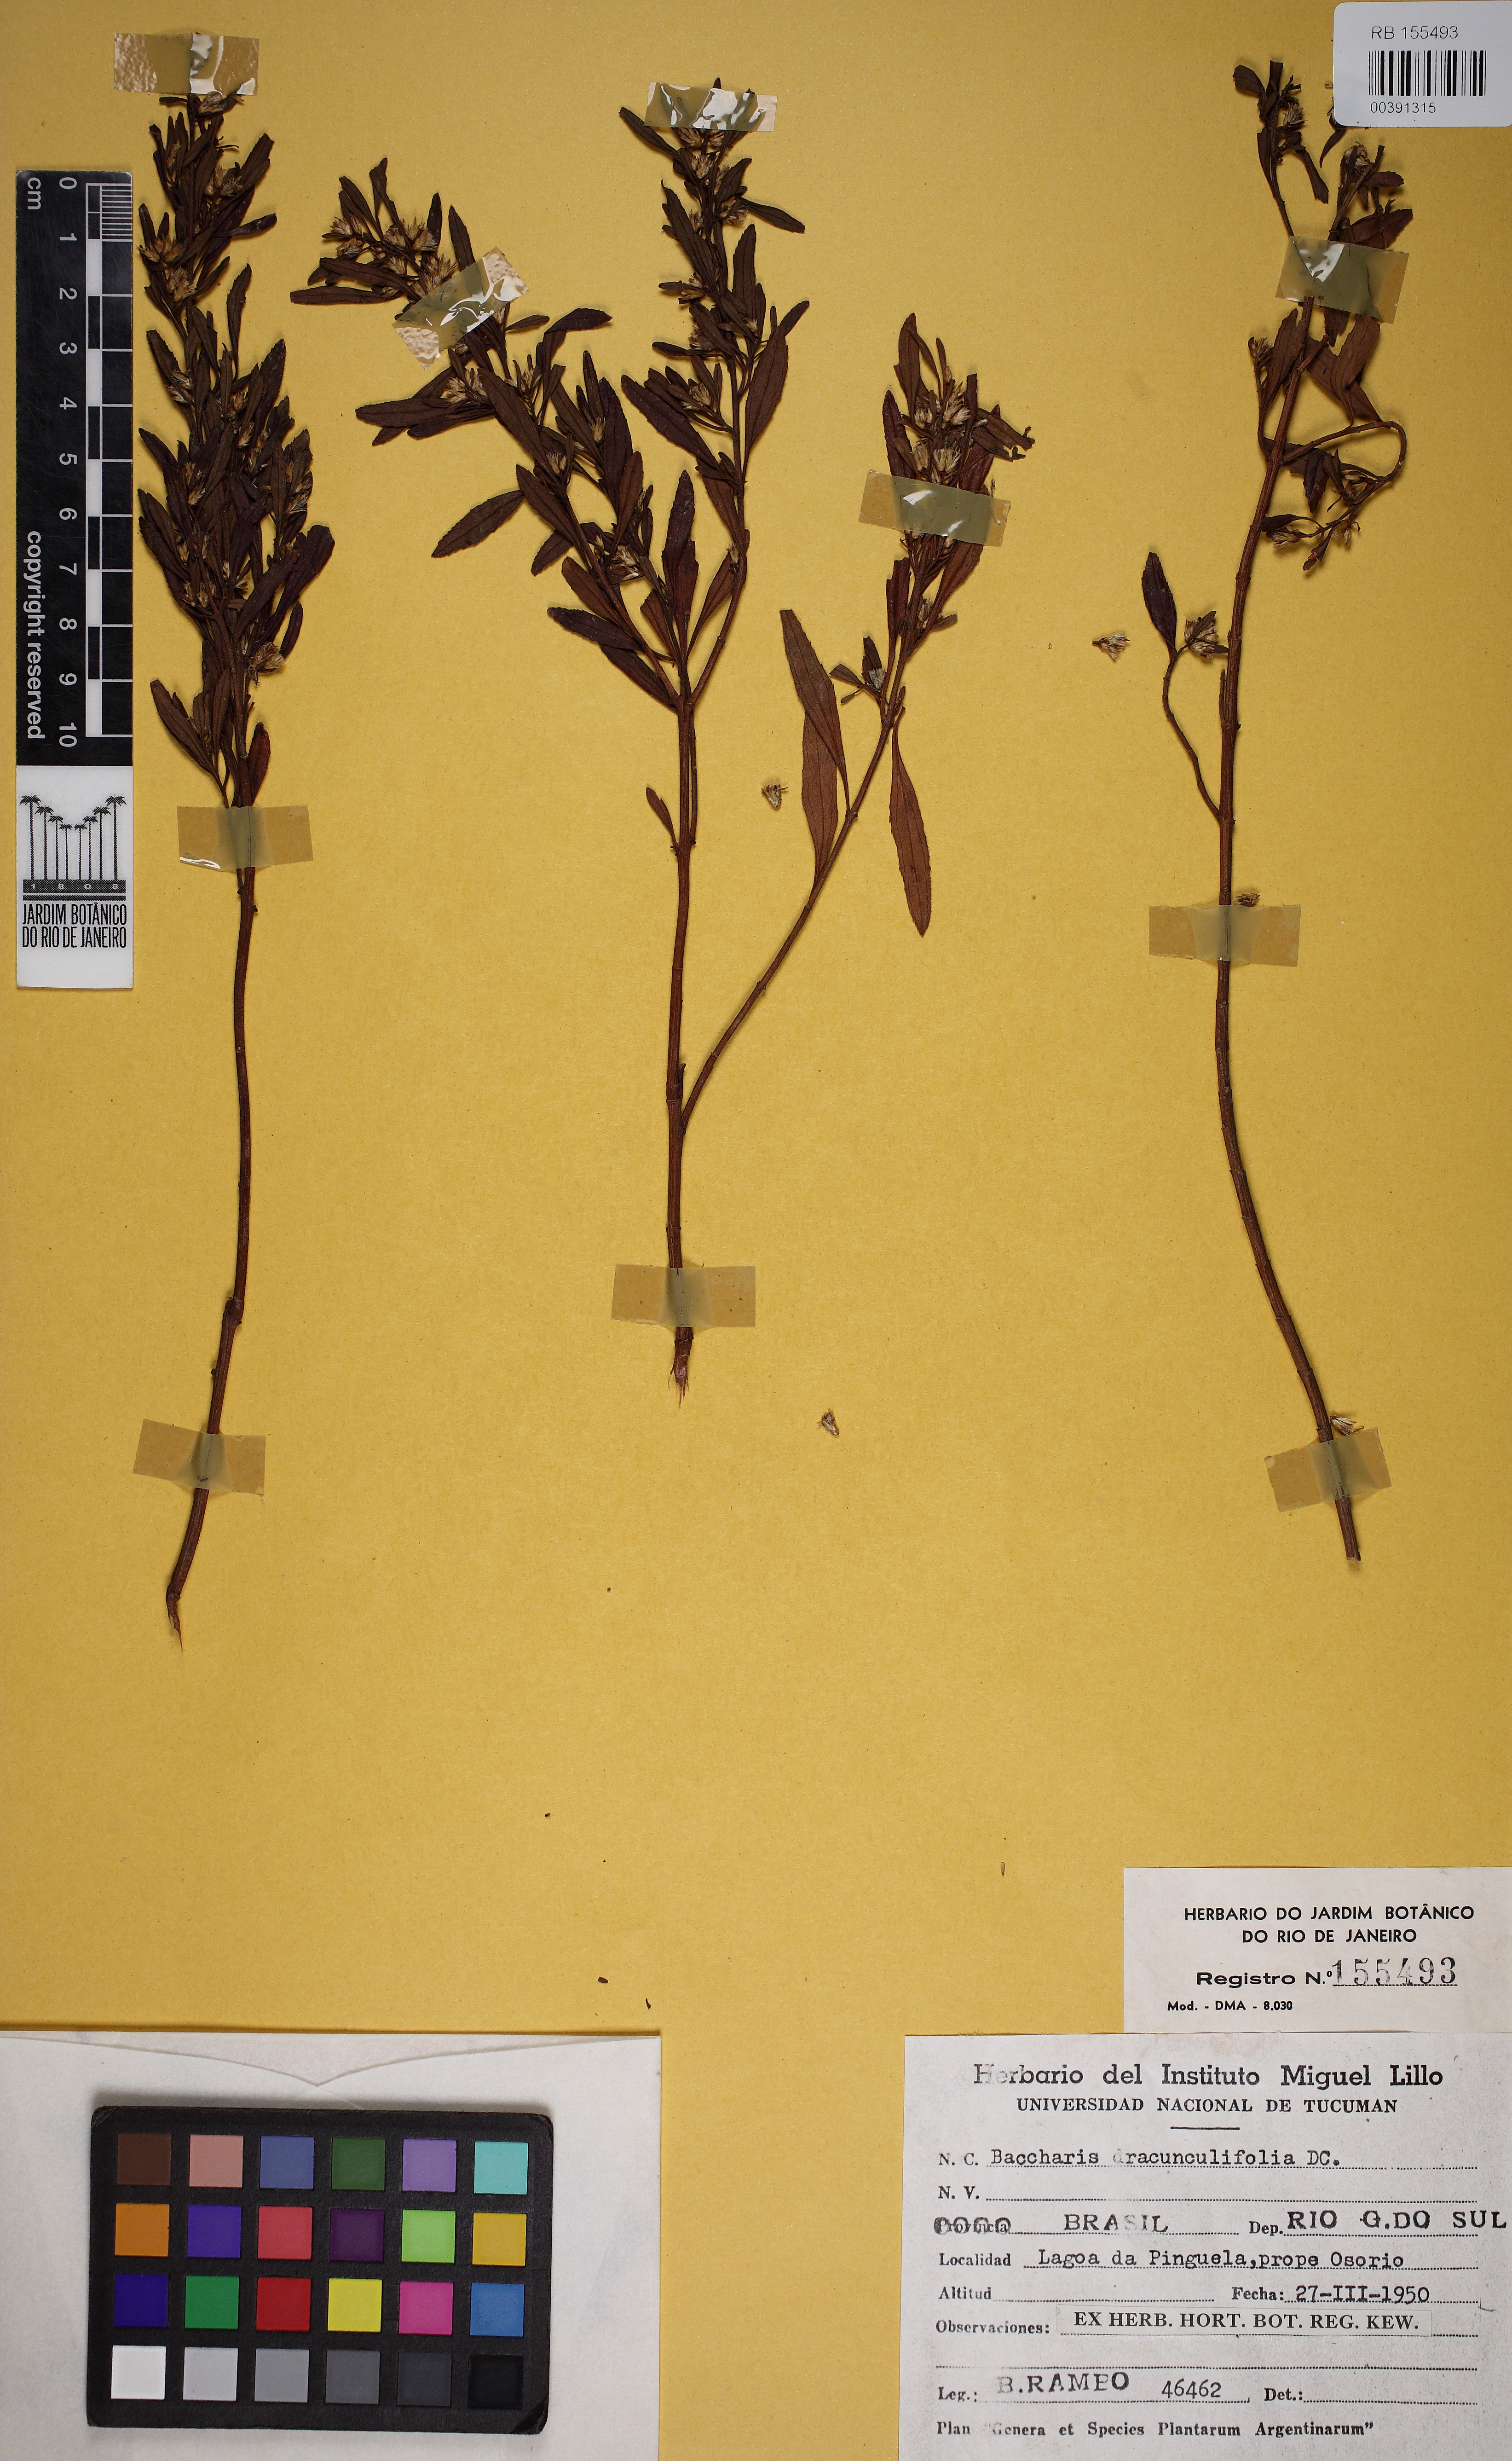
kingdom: Plantae
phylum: Tracheophyta
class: Magnoliopsida
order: Asterales
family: Asteraceae
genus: Baccharis
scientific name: Baccharis dracunculifolia
